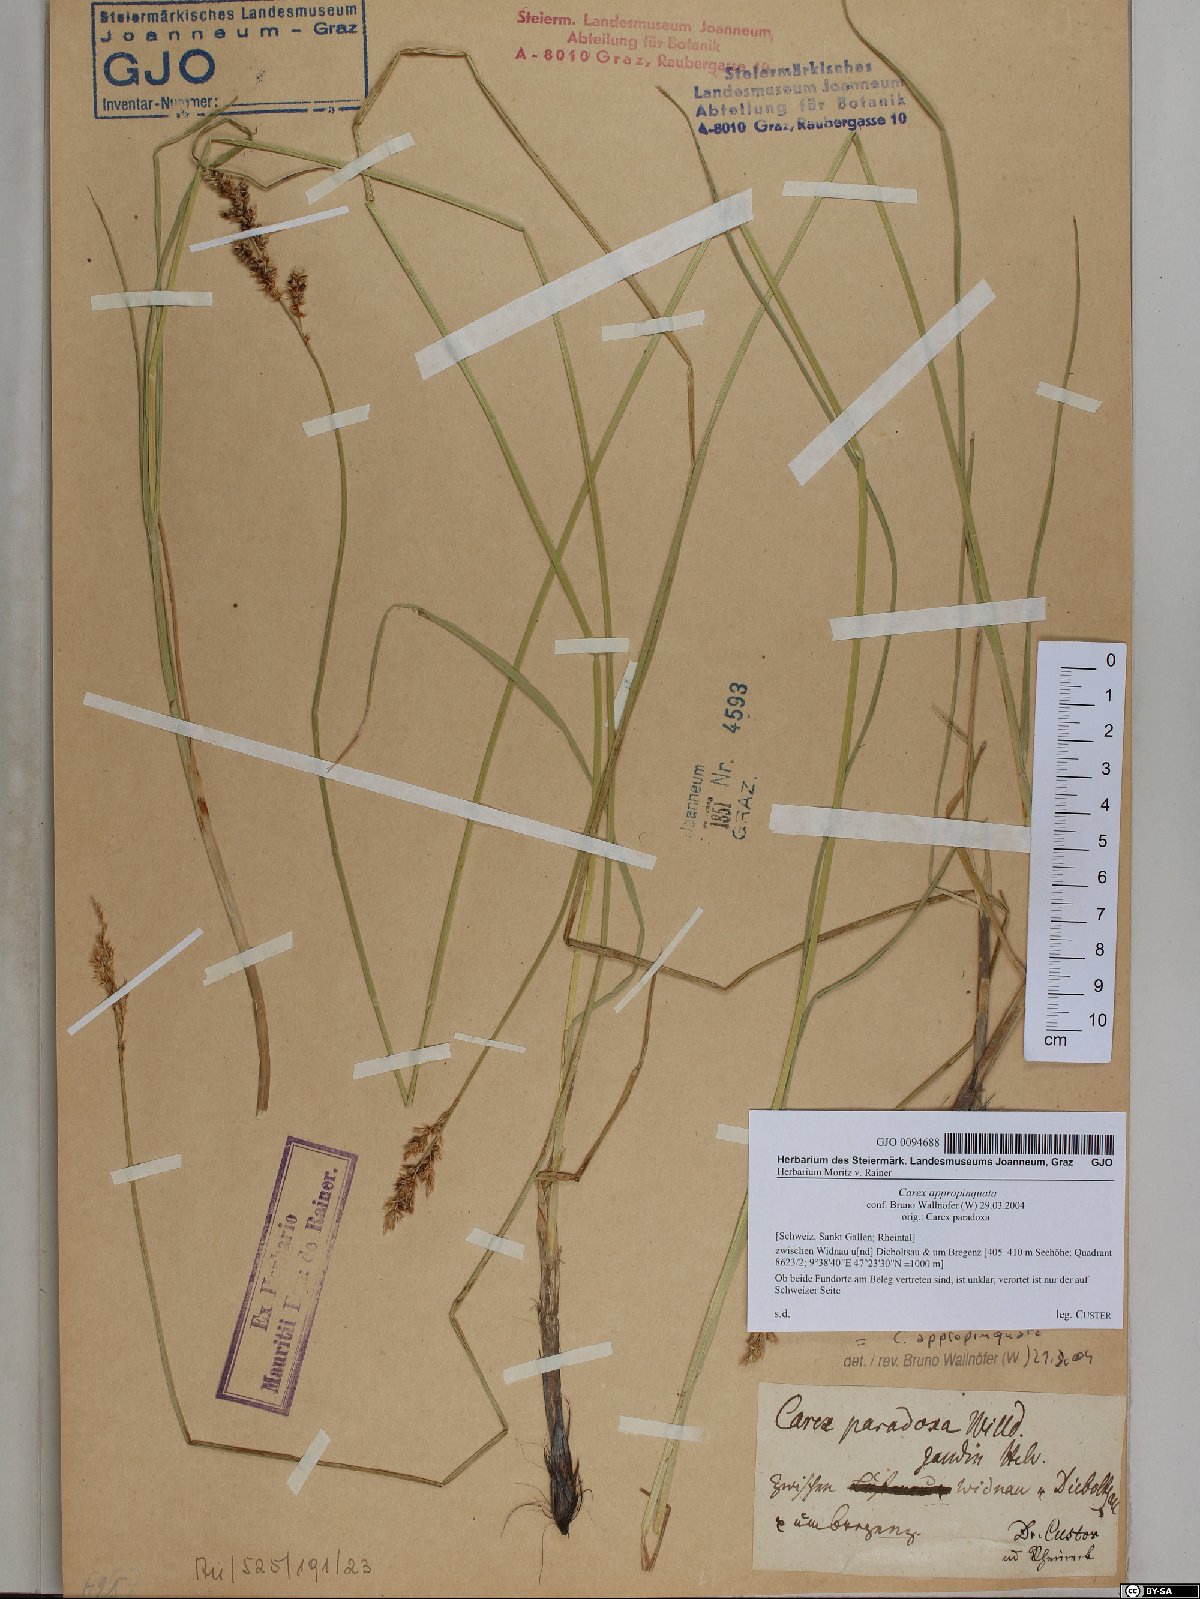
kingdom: Plantae
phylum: Tracheophyta
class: Liliopsida
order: Poales
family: Cyperaceae
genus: Carex
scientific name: Carex appropinquata
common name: Fibrous tussock-sedge
